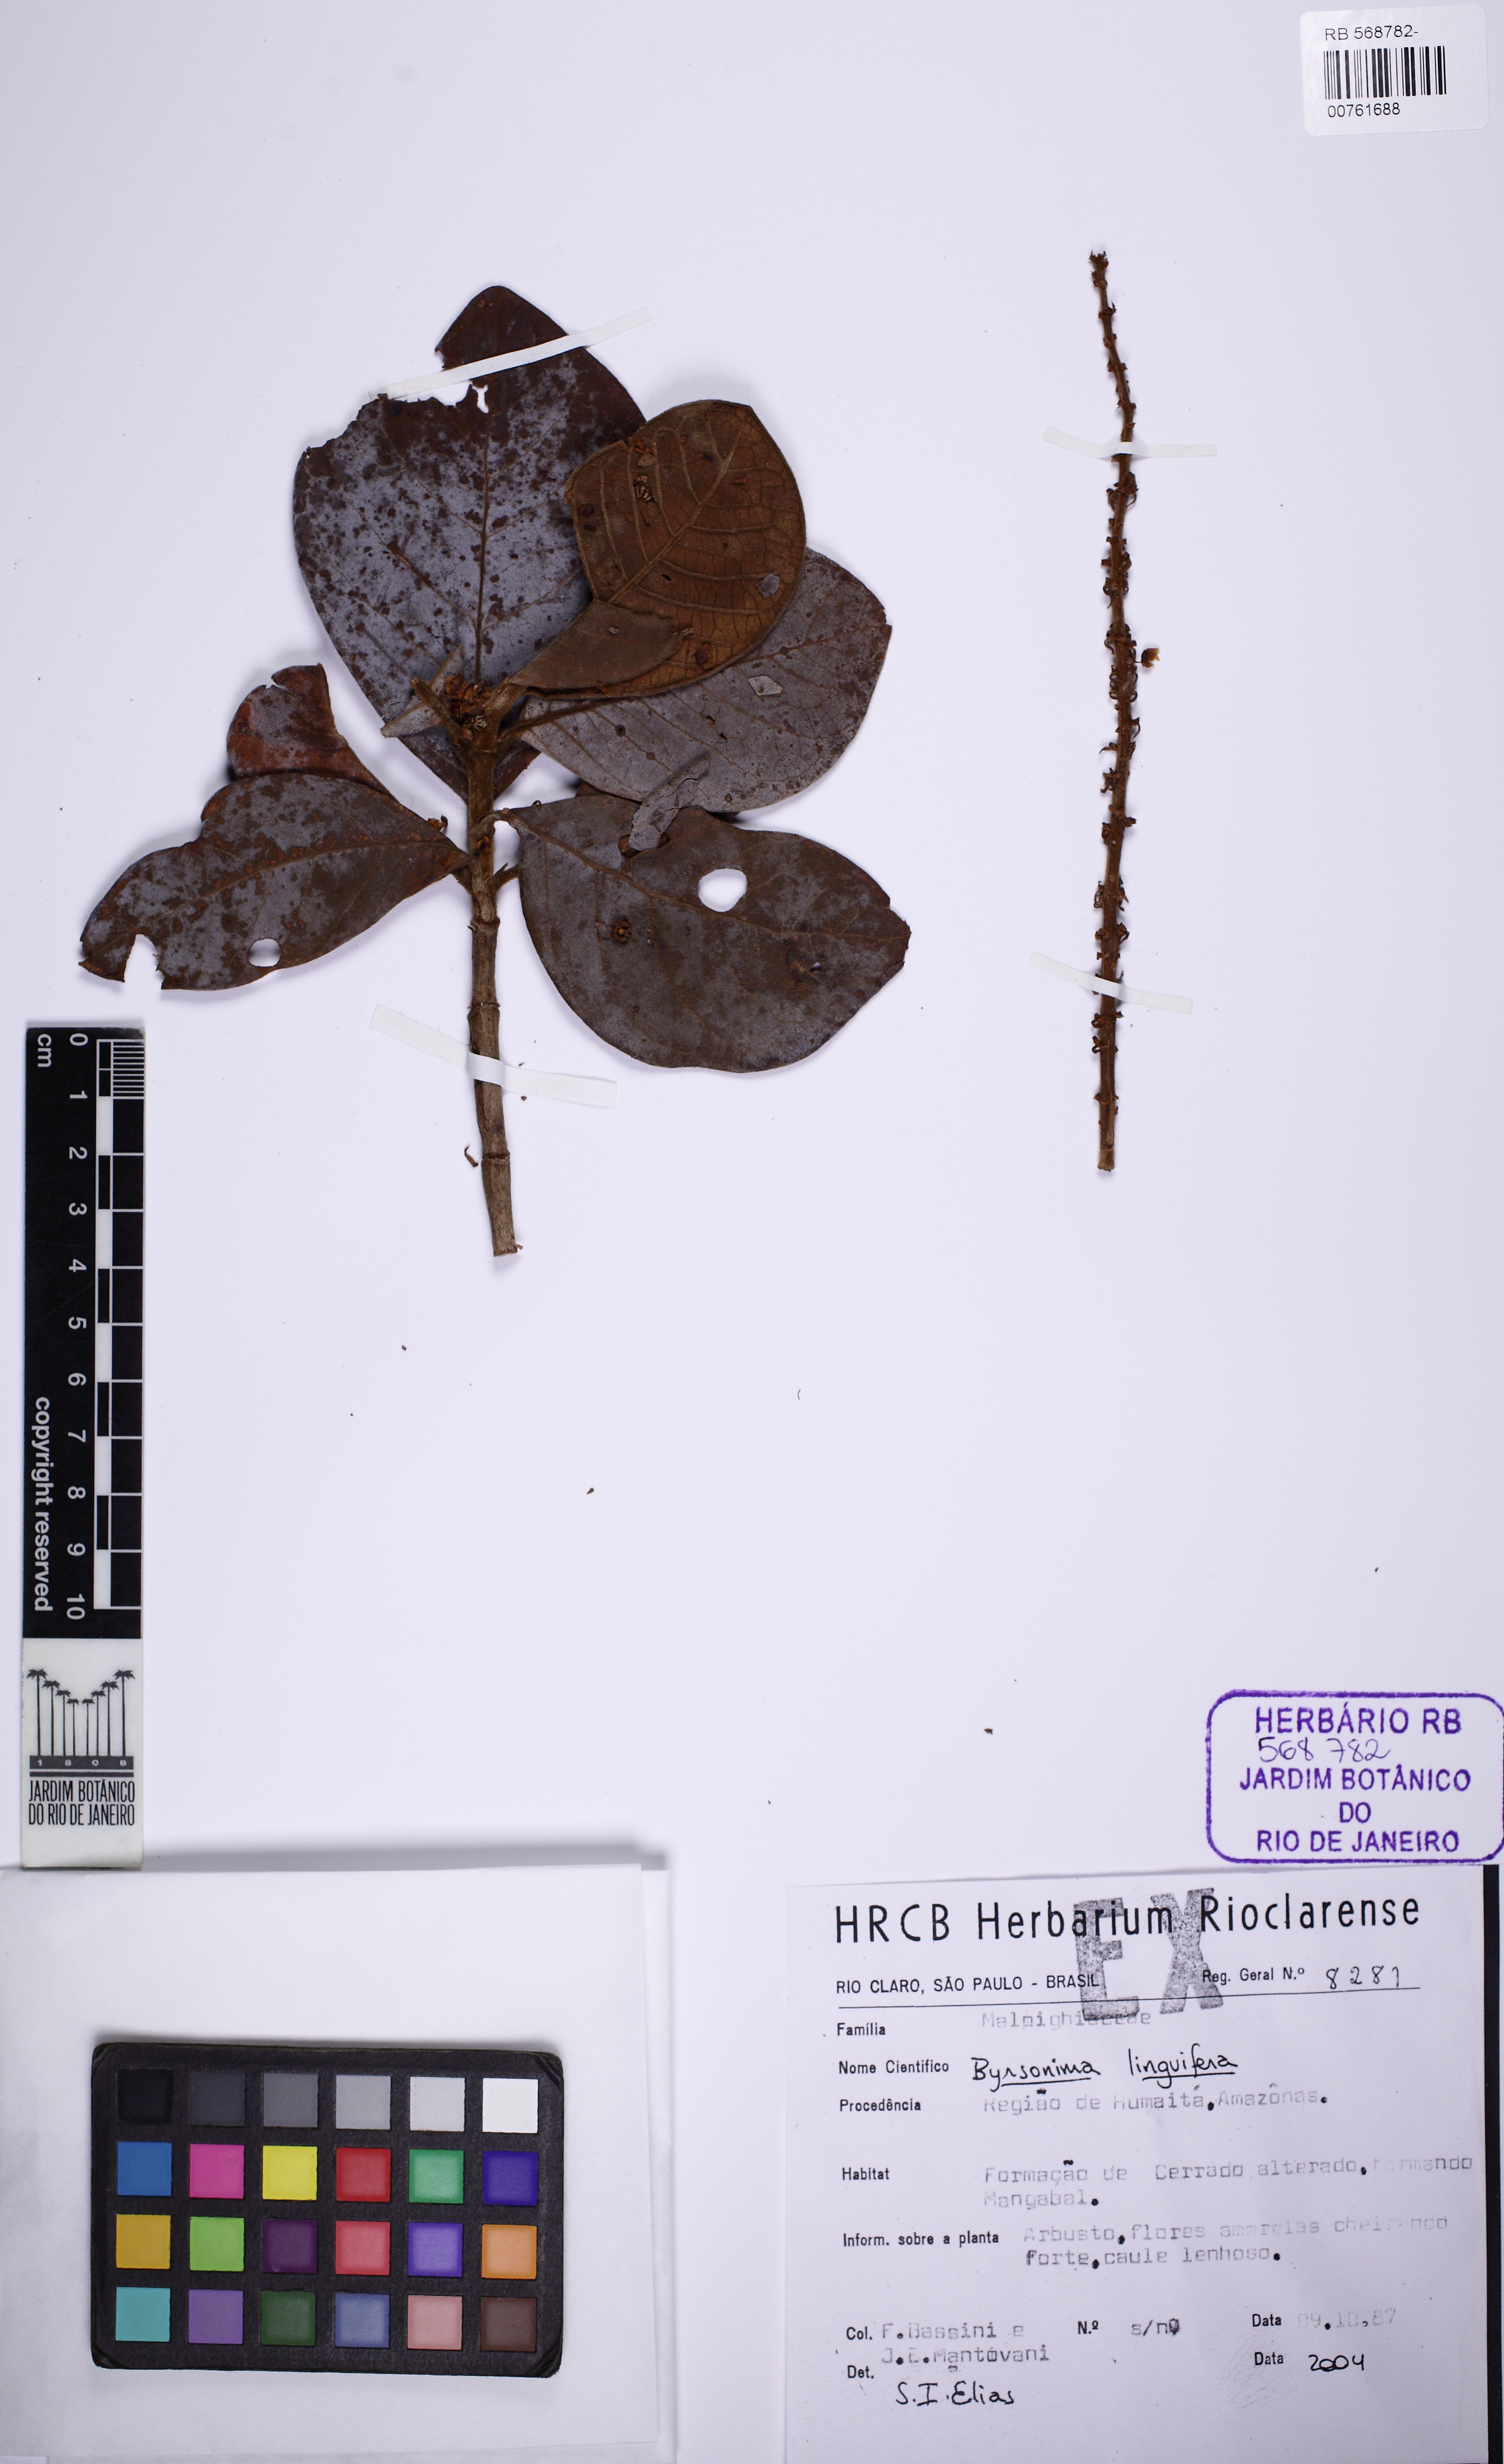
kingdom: Plantae
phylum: Tracheophyta
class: Magnoliopsida
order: Malpighiales
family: Malpighiaceae
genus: Byrsonima
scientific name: Byrsonima linguifera
